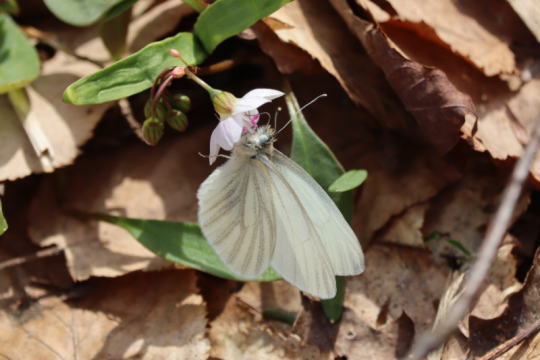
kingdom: Animalia
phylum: Arthropoda
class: Insecta
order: Lepidoptera
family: Pieridae
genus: Pieris
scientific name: Pieris virginiensis
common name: West Virginia White
